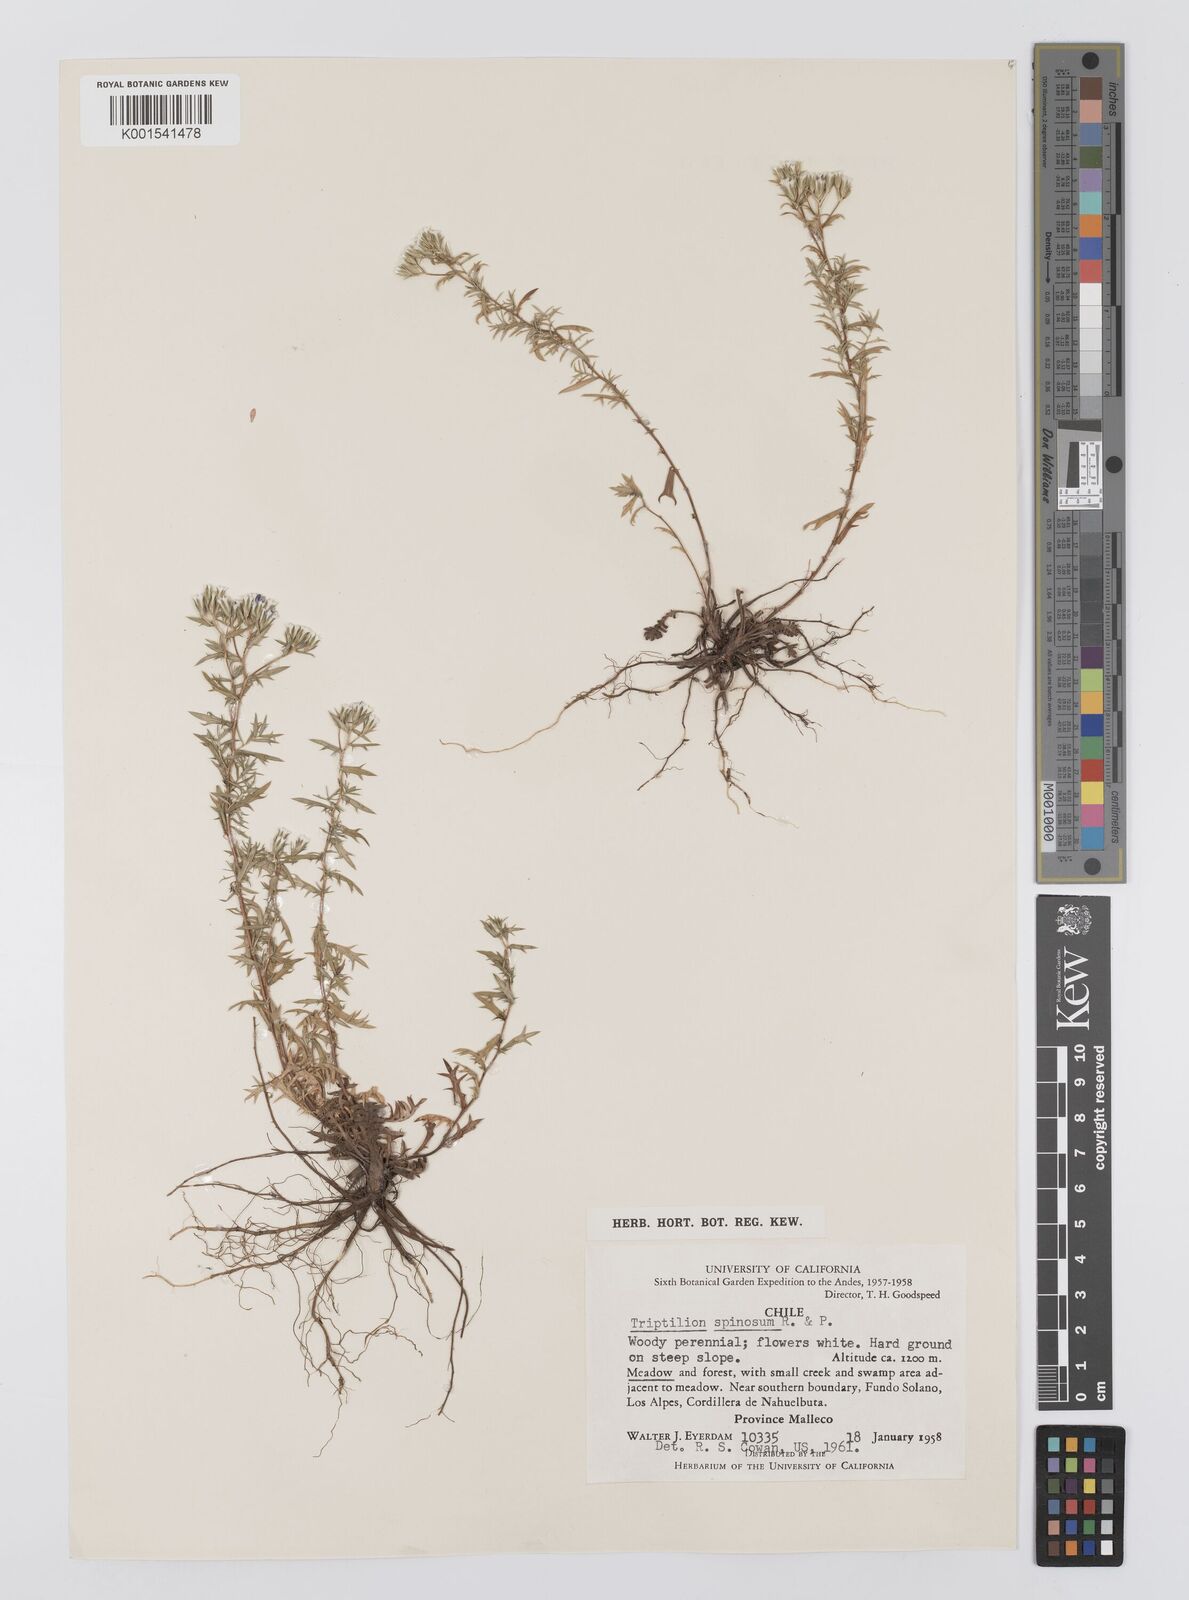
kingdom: Plantae
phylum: Tracheophyta
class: Magnoliopsida
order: Asterales
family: Asteraceae
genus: Triptilion
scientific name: Triptilion spinosum
